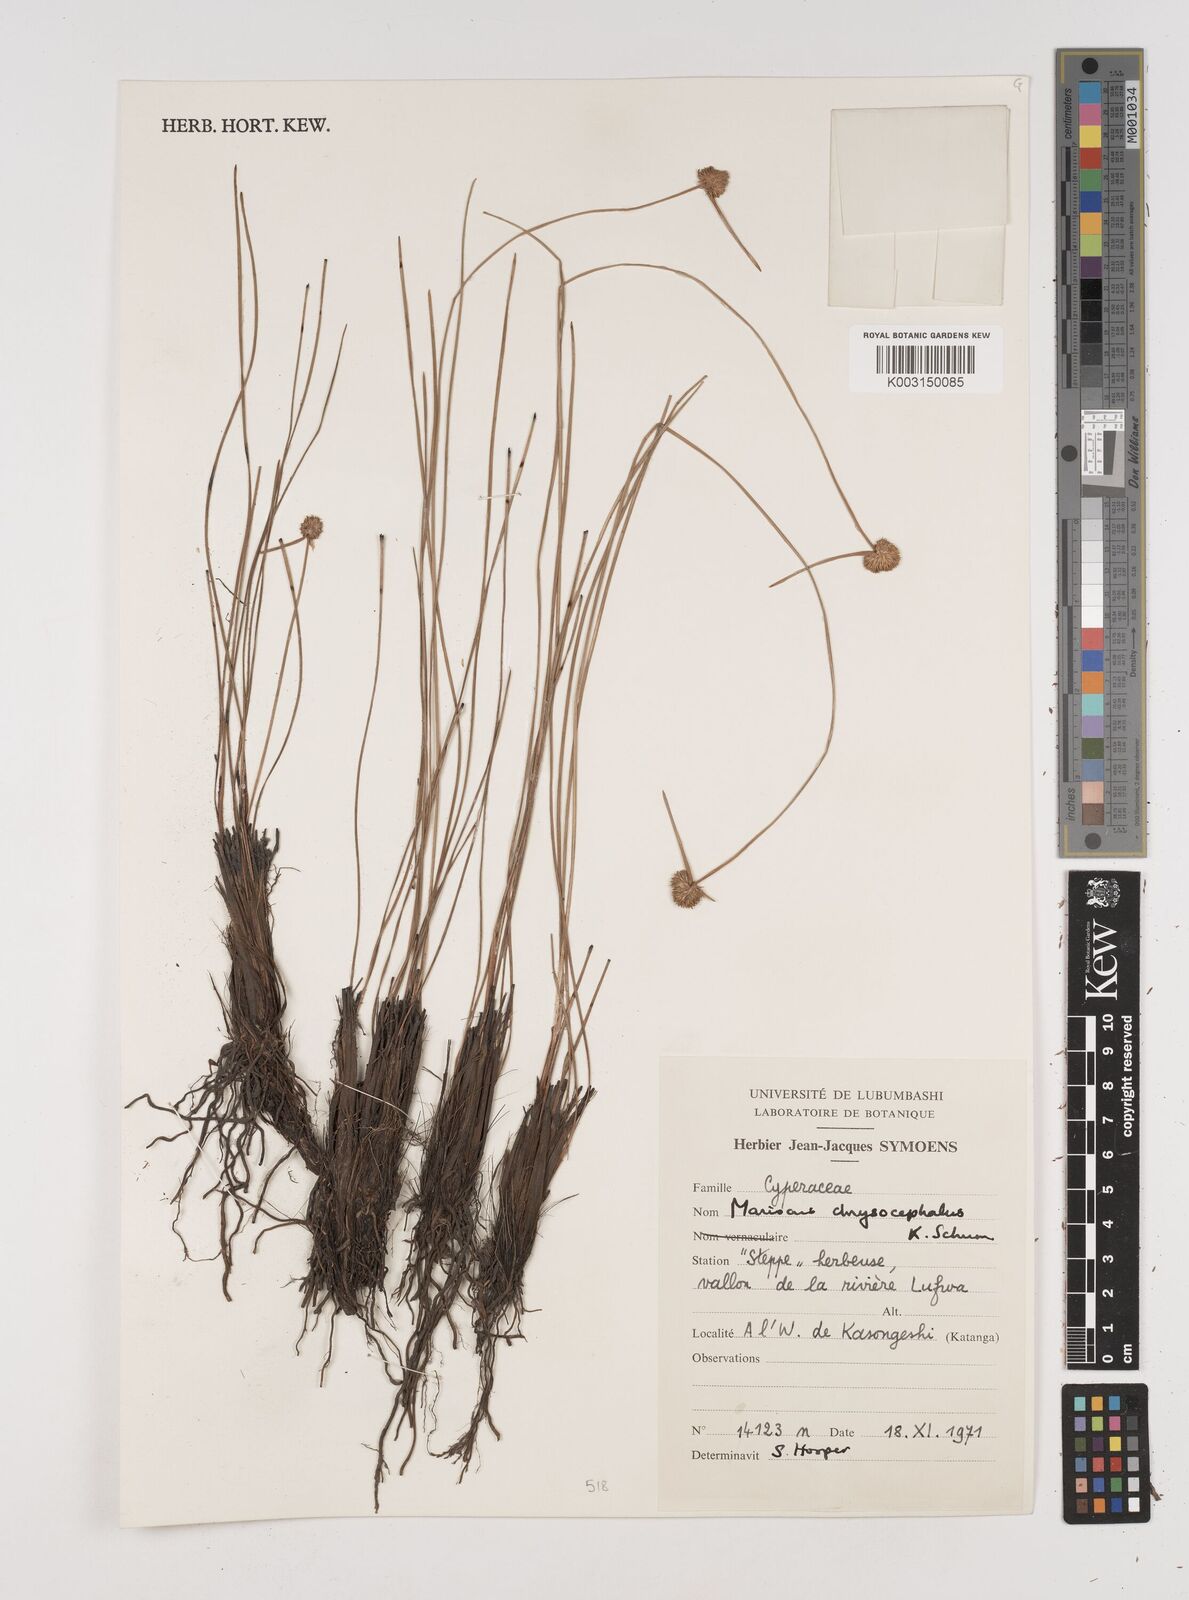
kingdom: Plantae
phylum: Tracheophyta
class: Liliopsida
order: Poales
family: Cyperaceae
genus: Cyperus
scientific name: Cyperus chrysocephalus
